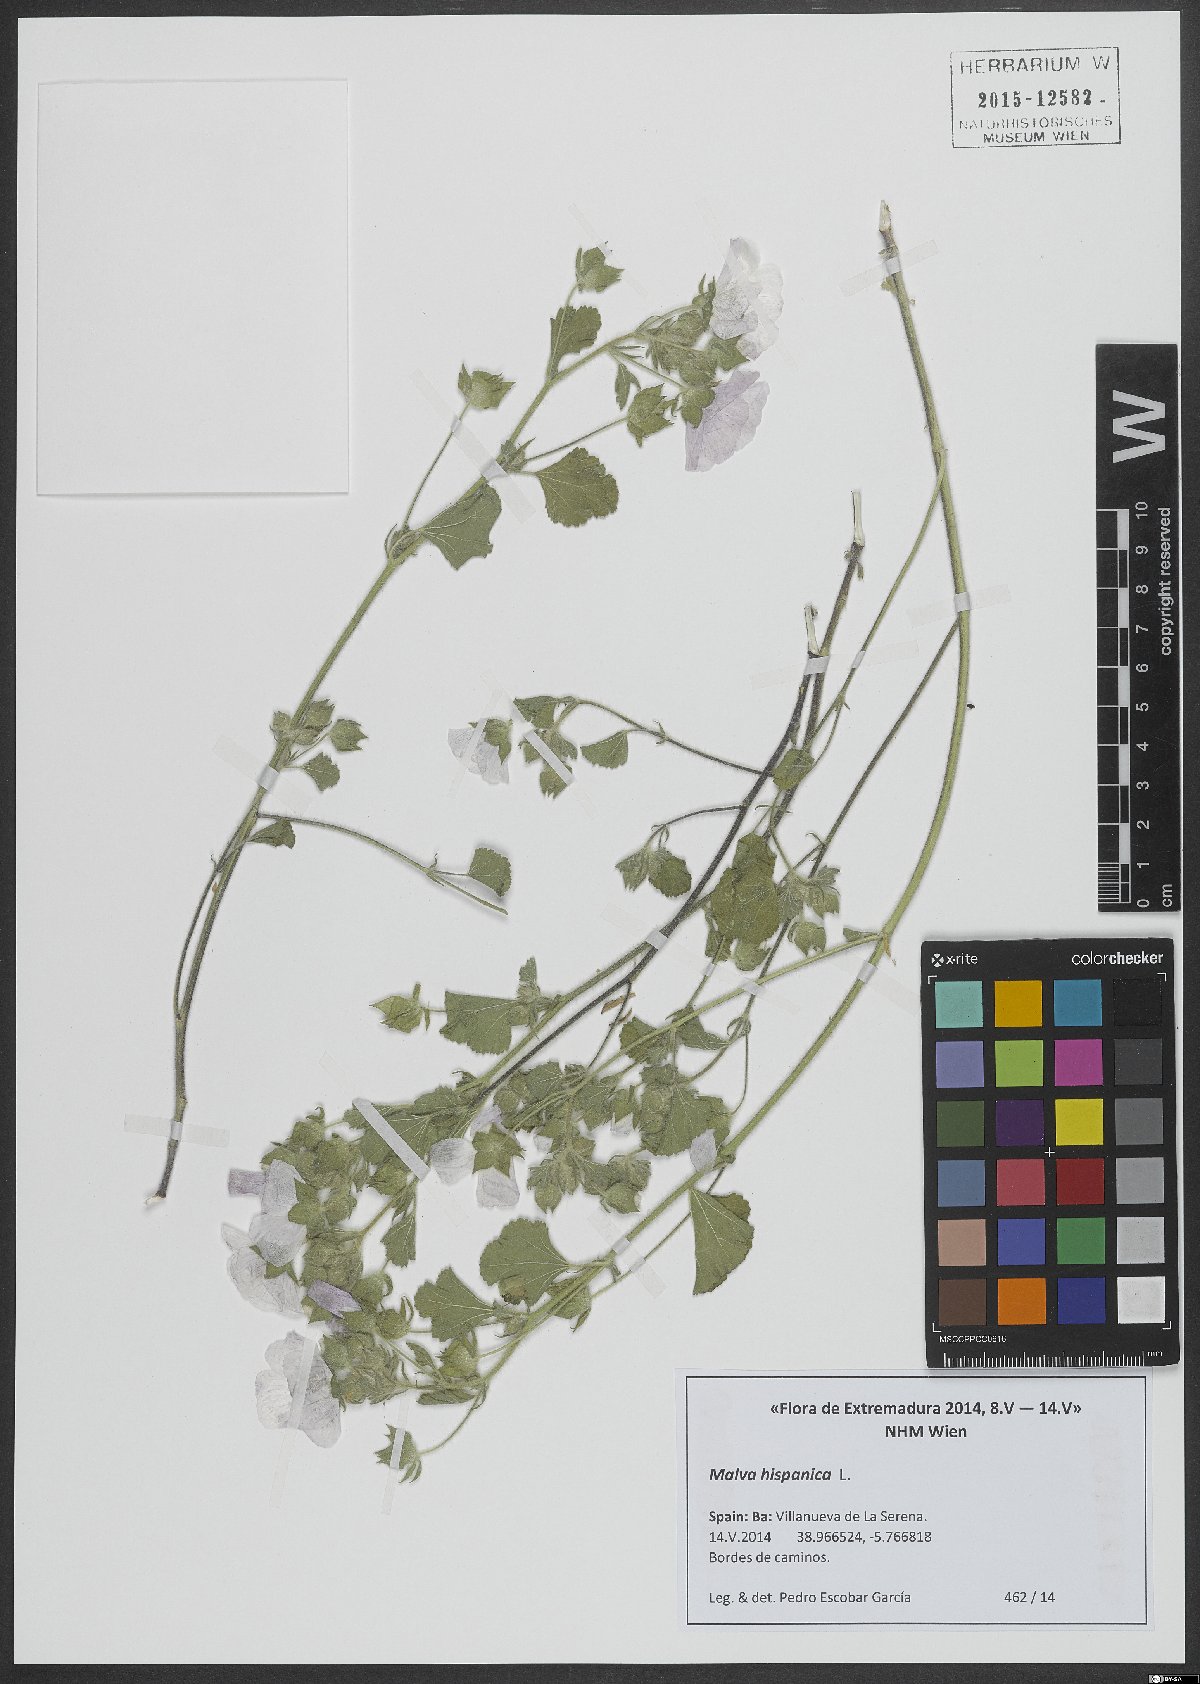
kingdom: Plantae
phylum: Tracheophyta
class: Magnoliopsida
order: Malvales
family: Malvaceae
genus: Malva
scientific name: Malva hispanica
